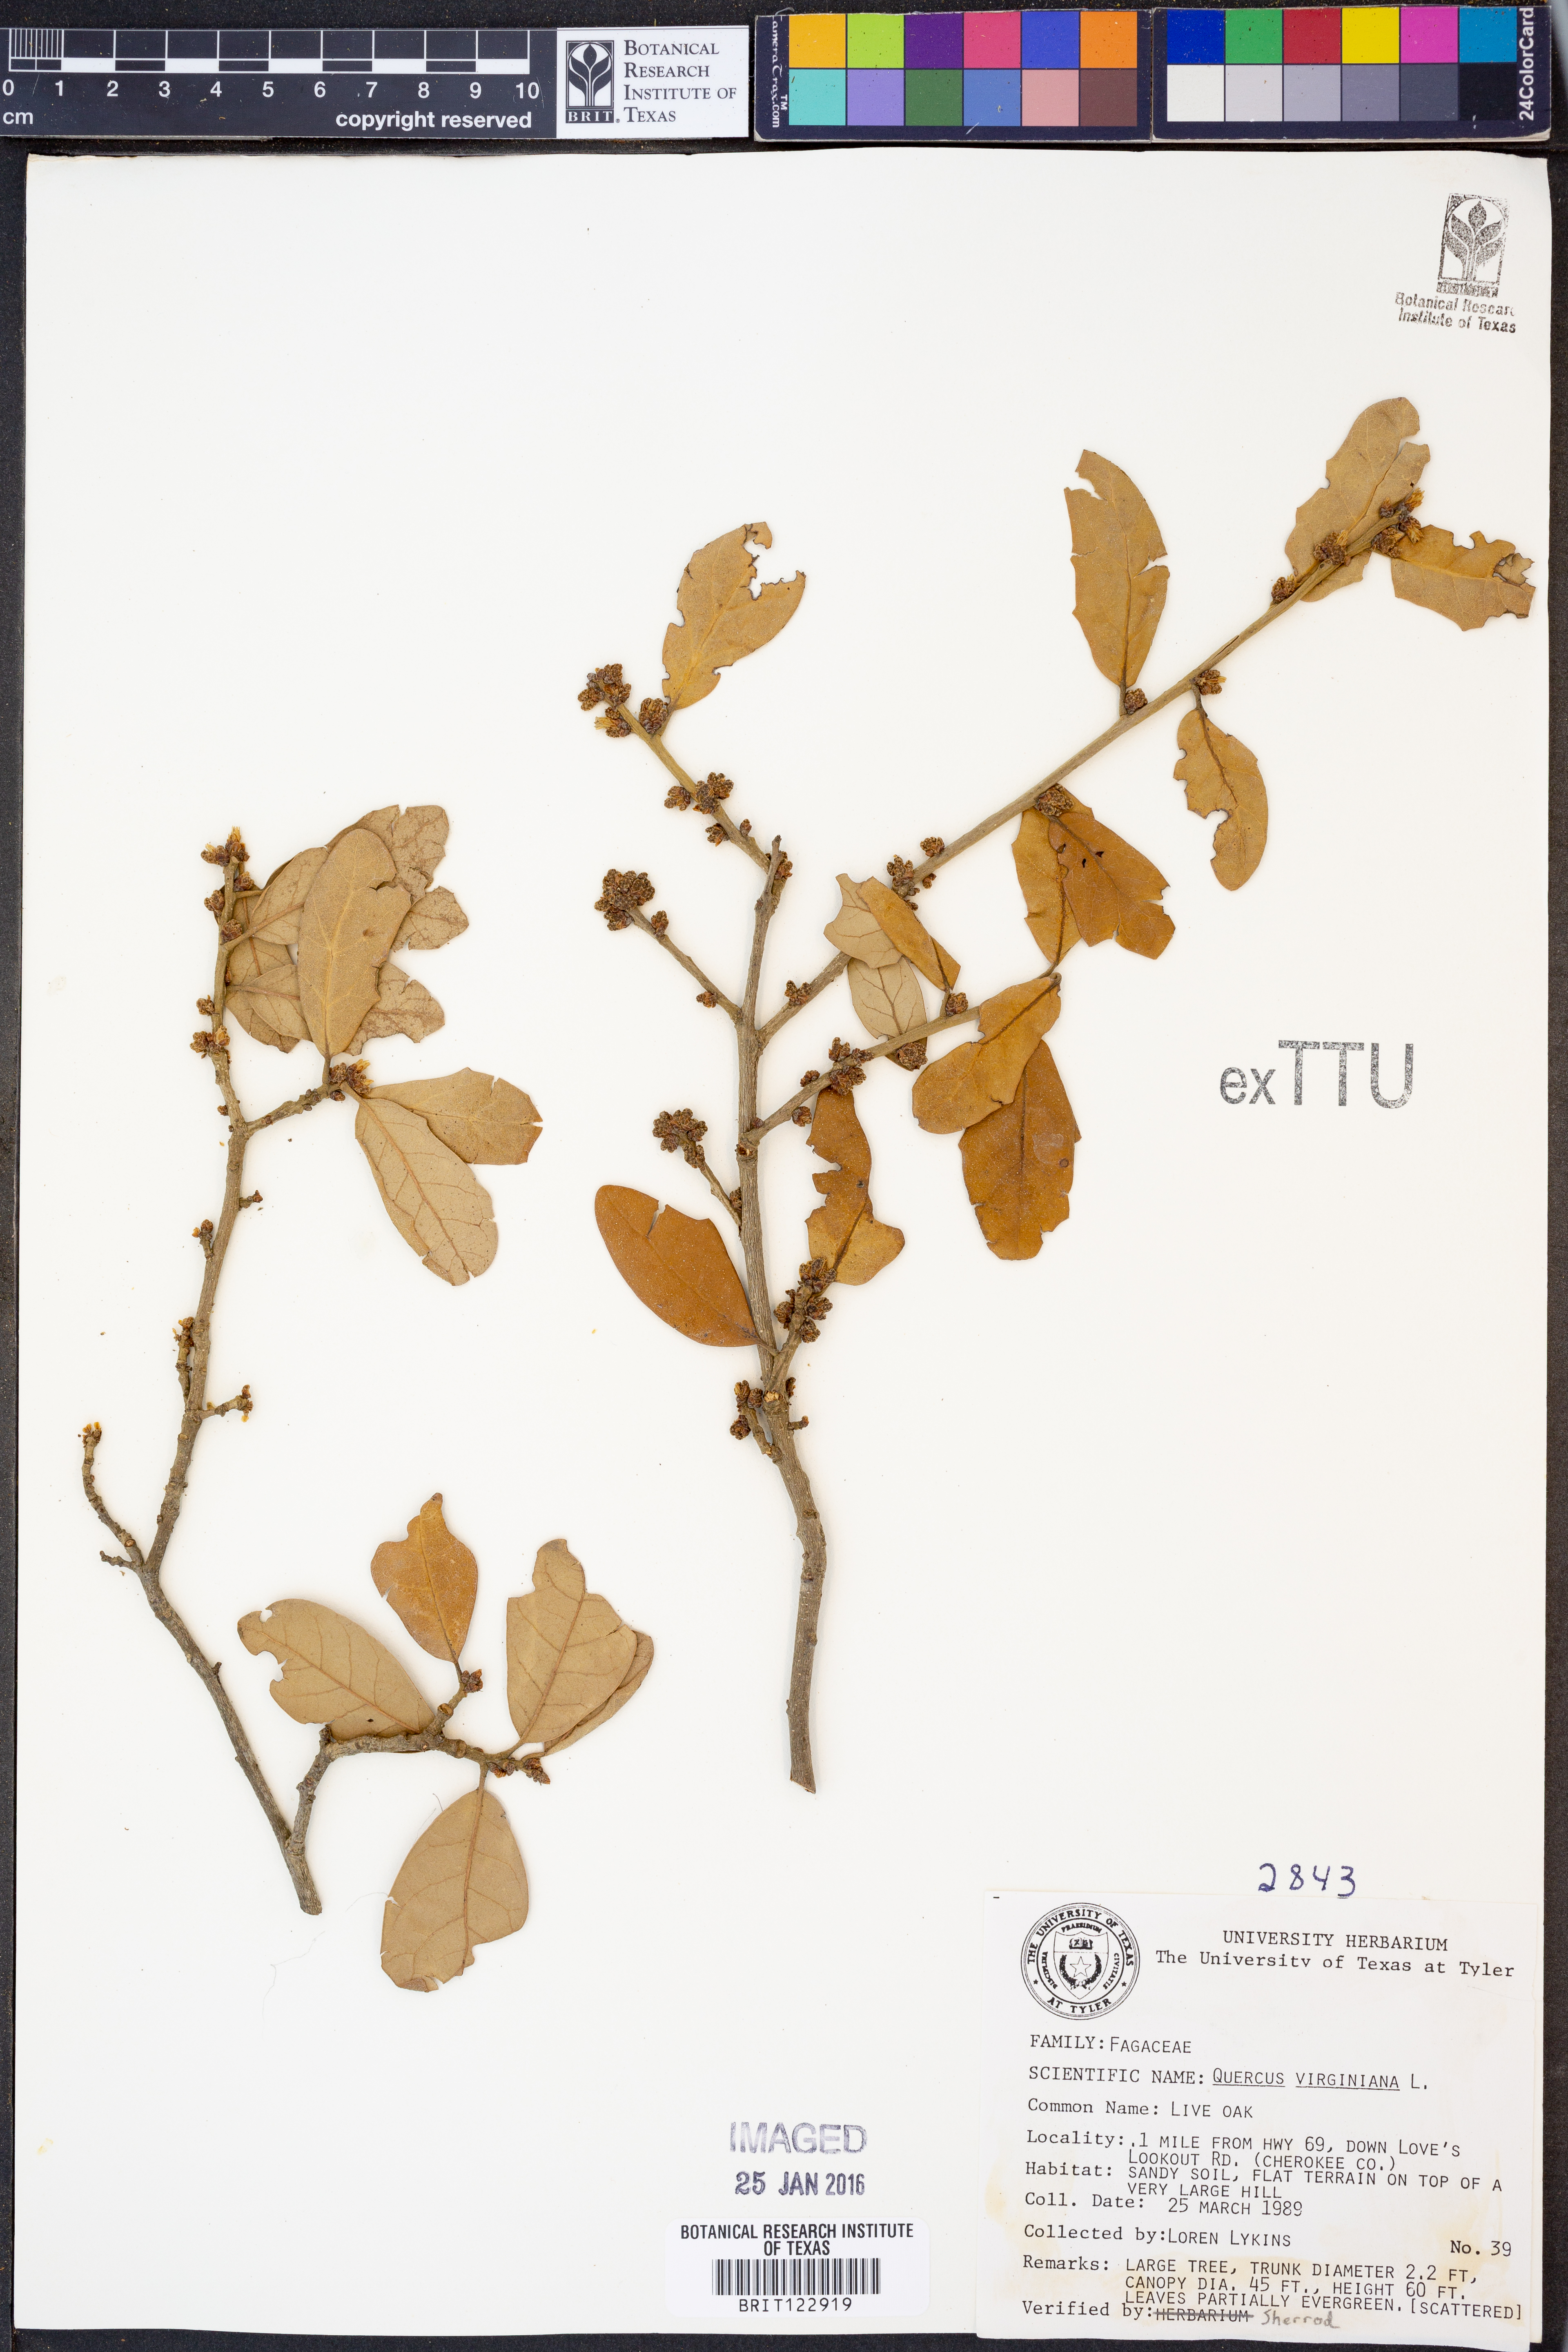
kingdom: Plantae
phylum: Tracheophyta
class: Magnoliopsida
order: Fagales
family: Fagaceae
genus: Quercus
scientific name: Quercus virginiana
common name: Southern live oak
